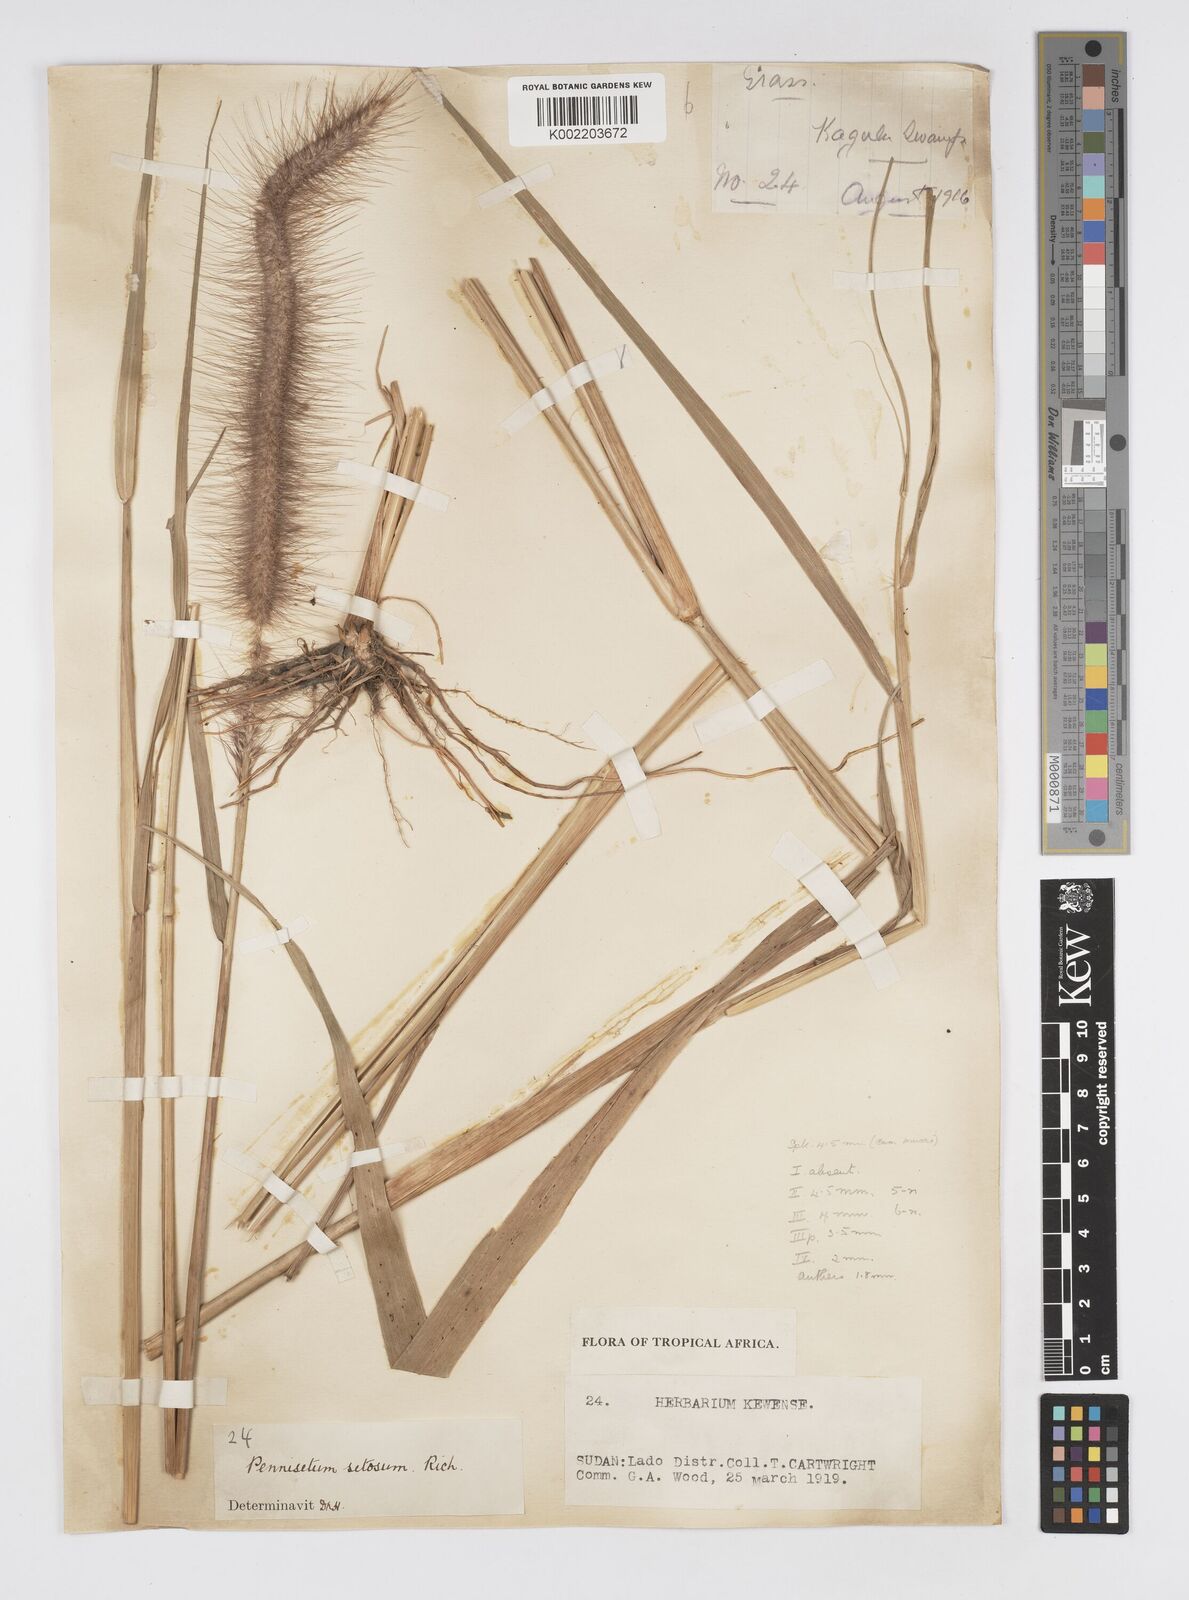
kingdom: Plantae
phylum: Tracheophyta
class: Liliopsida
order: Poales
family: Poaceae
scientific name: Poaceae
